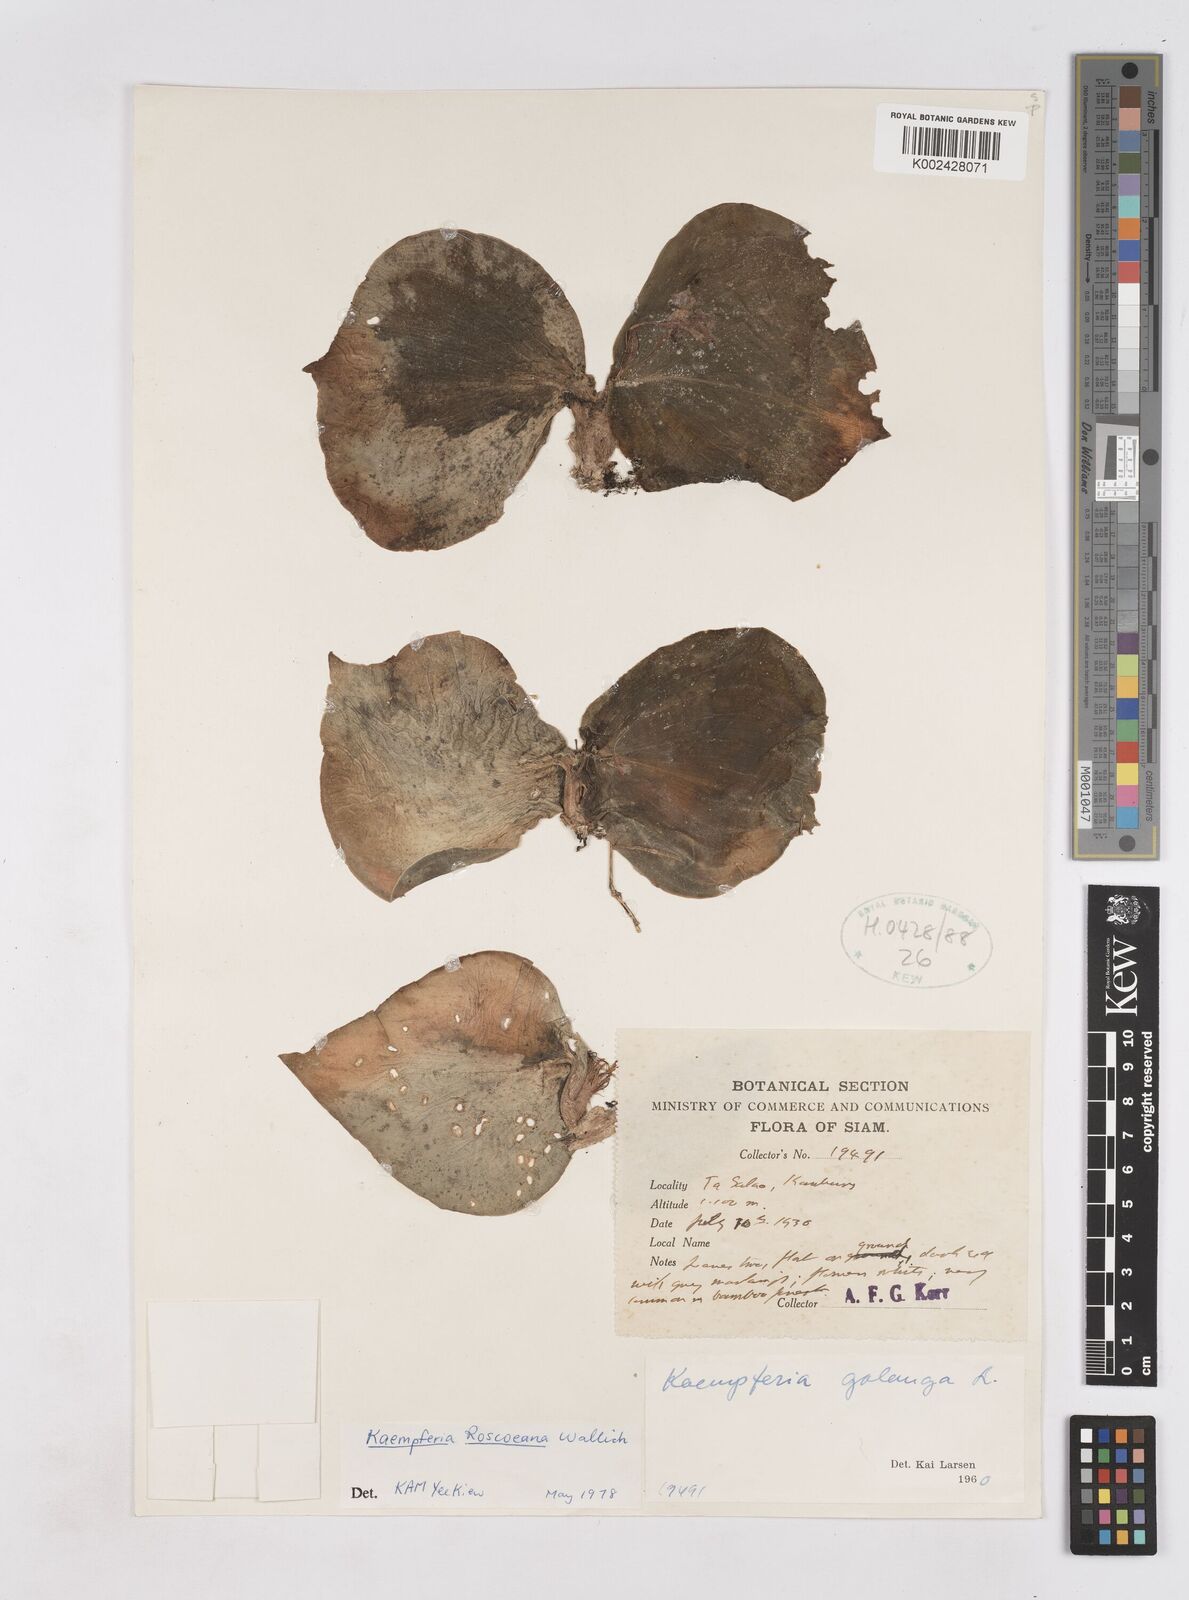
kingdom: Plantae
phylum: Tracheophyta
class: Liliopsida
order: Zingiberales
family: Zingiberaceae
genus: Kaempferia
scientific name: Kaempferia roscoeana
